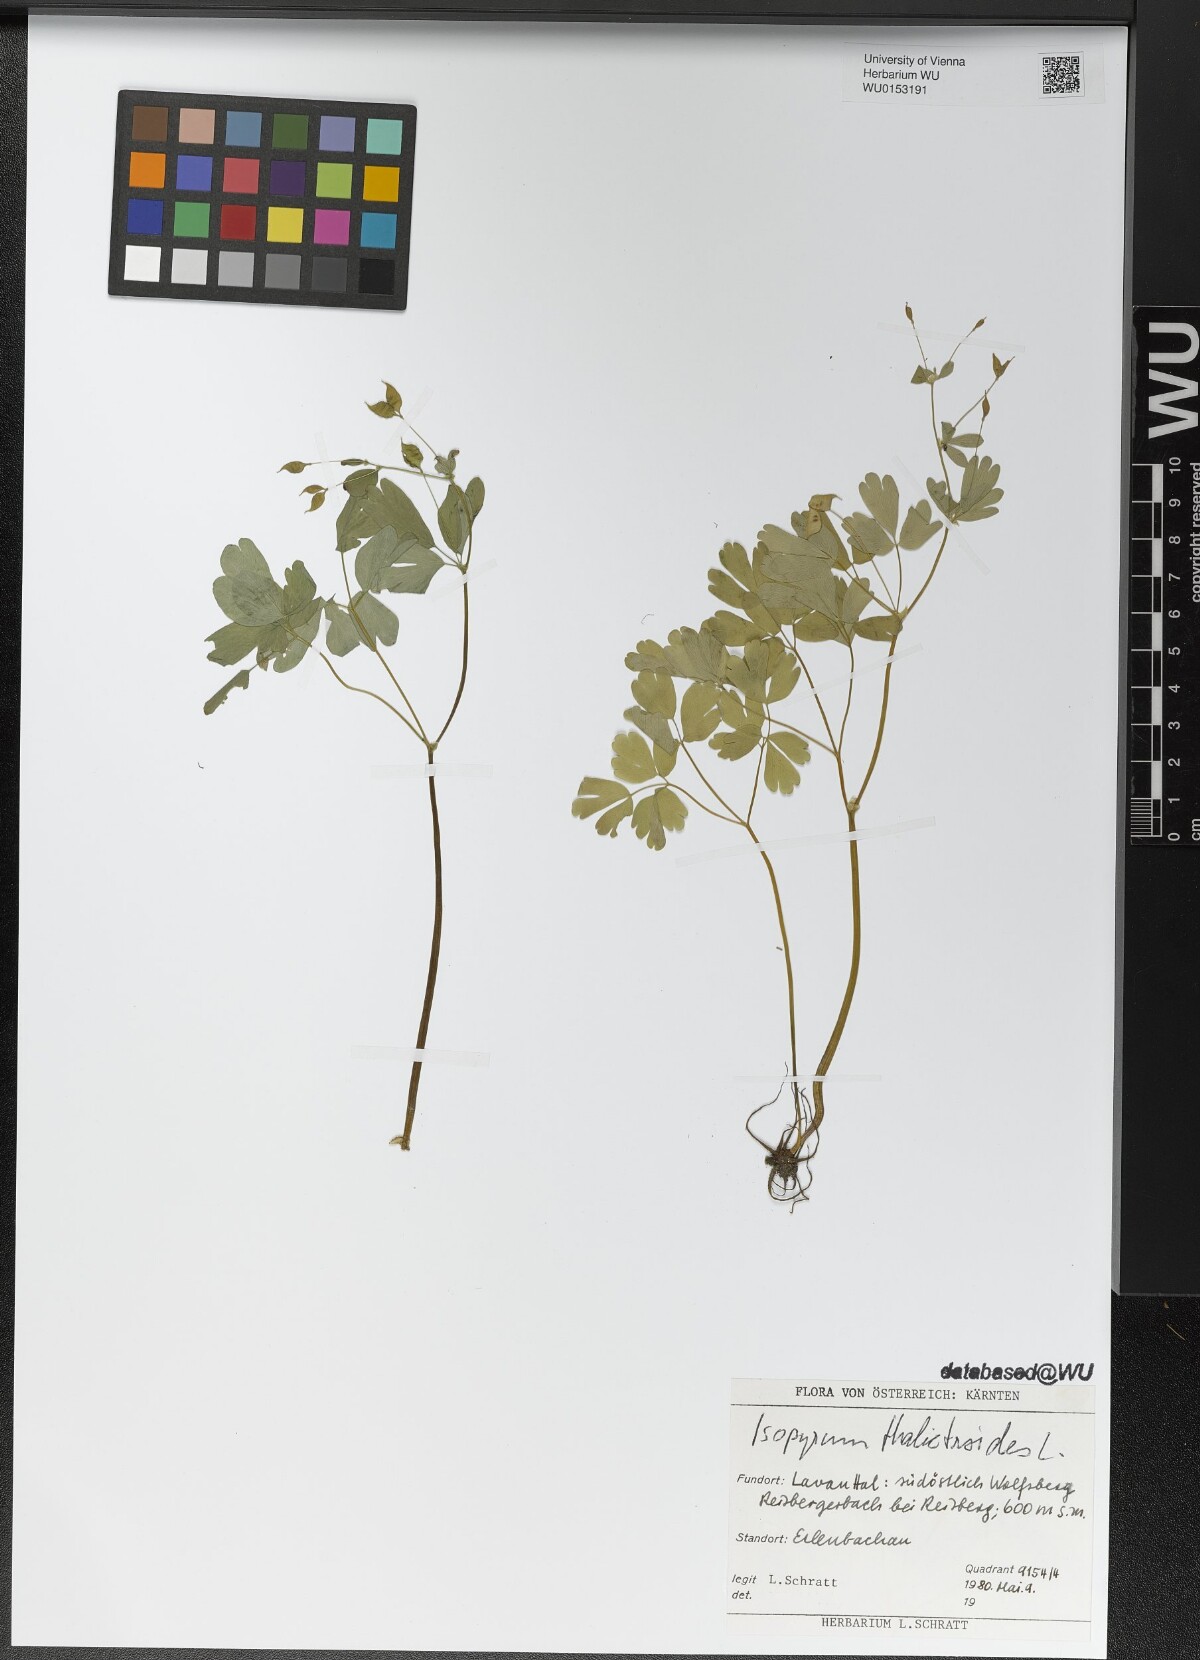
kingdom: Plantae
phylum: Tracheophyta
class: Magnoliopsida
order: Ranunculales
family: Ranunculaceae
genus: Isopyrum
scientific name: Isopyrum thalictroides
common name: Isopyrum
